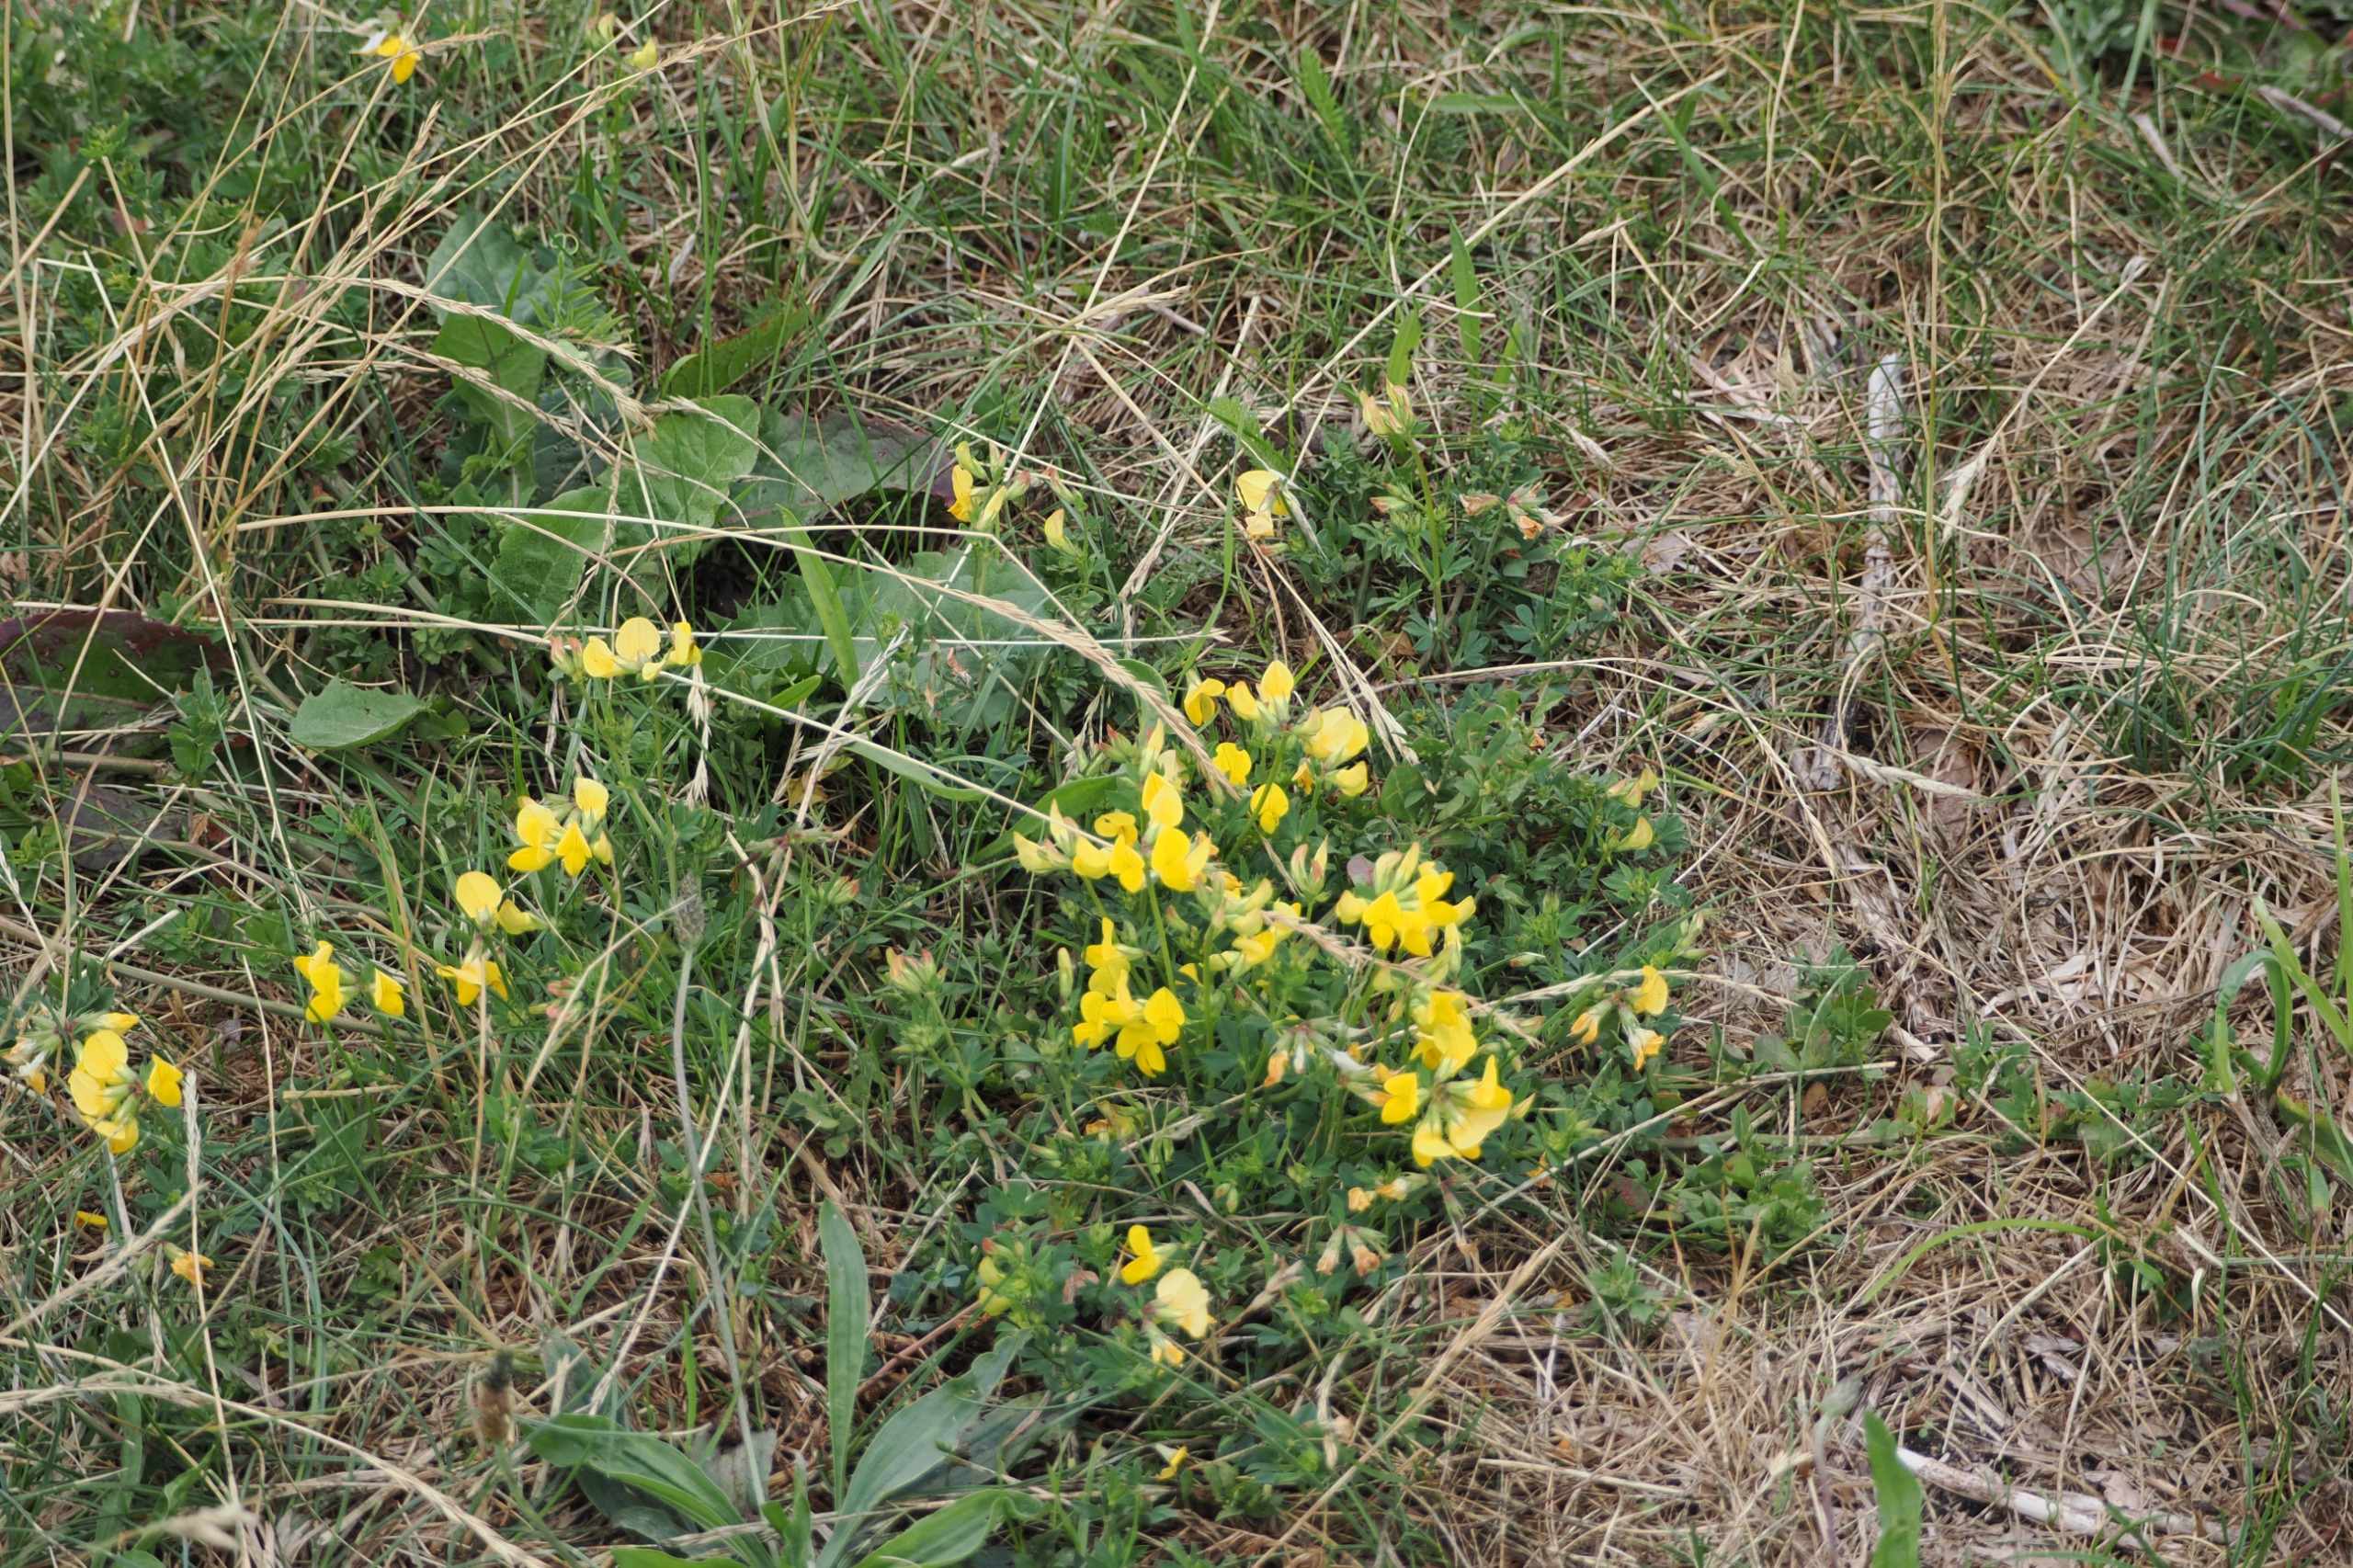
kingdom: Plantae
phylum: Tracheophyta
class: Magnoliopsida
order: Fabales
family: Fabaceae
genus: Lotus
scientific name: Lotus corniculatus
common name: Almindelig kællingetand
